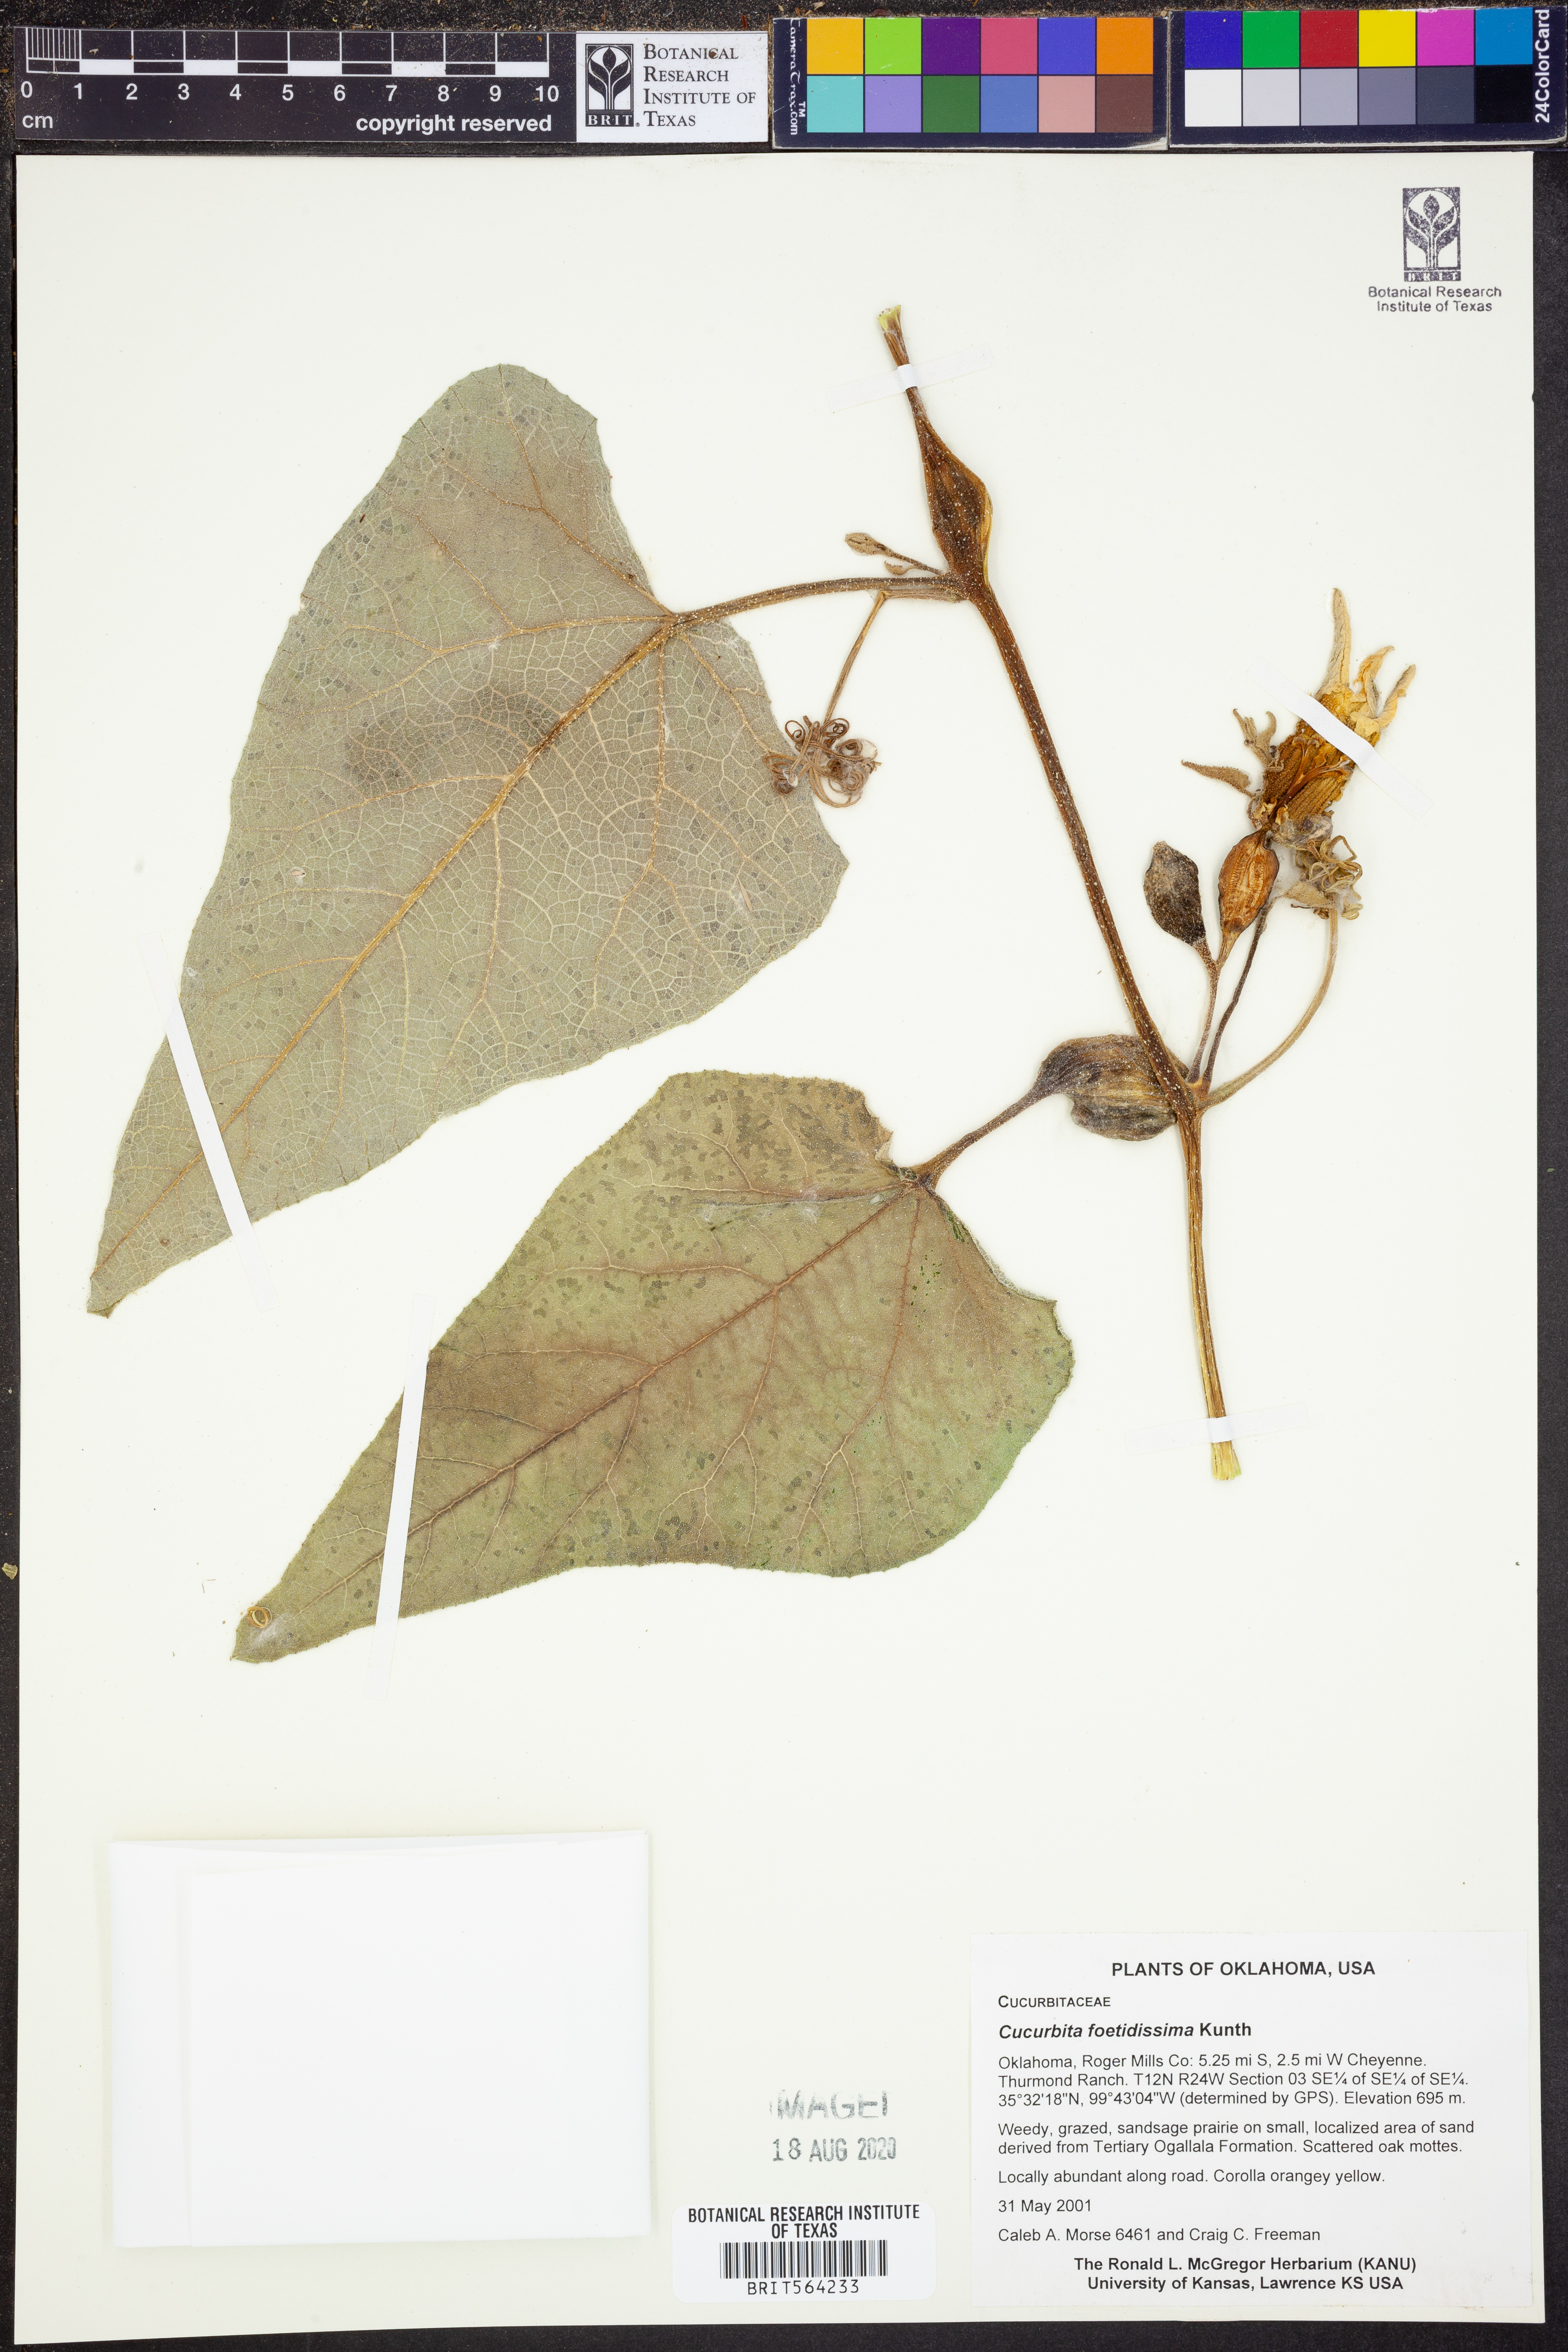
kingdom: Plantae
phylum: Tracheophyta
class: Magnoliopsida
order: Cucurbitales
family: Cucurbitaceae
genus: Cucurbita
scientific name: Cucurbita foetidissima
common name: Buffalo gourd
